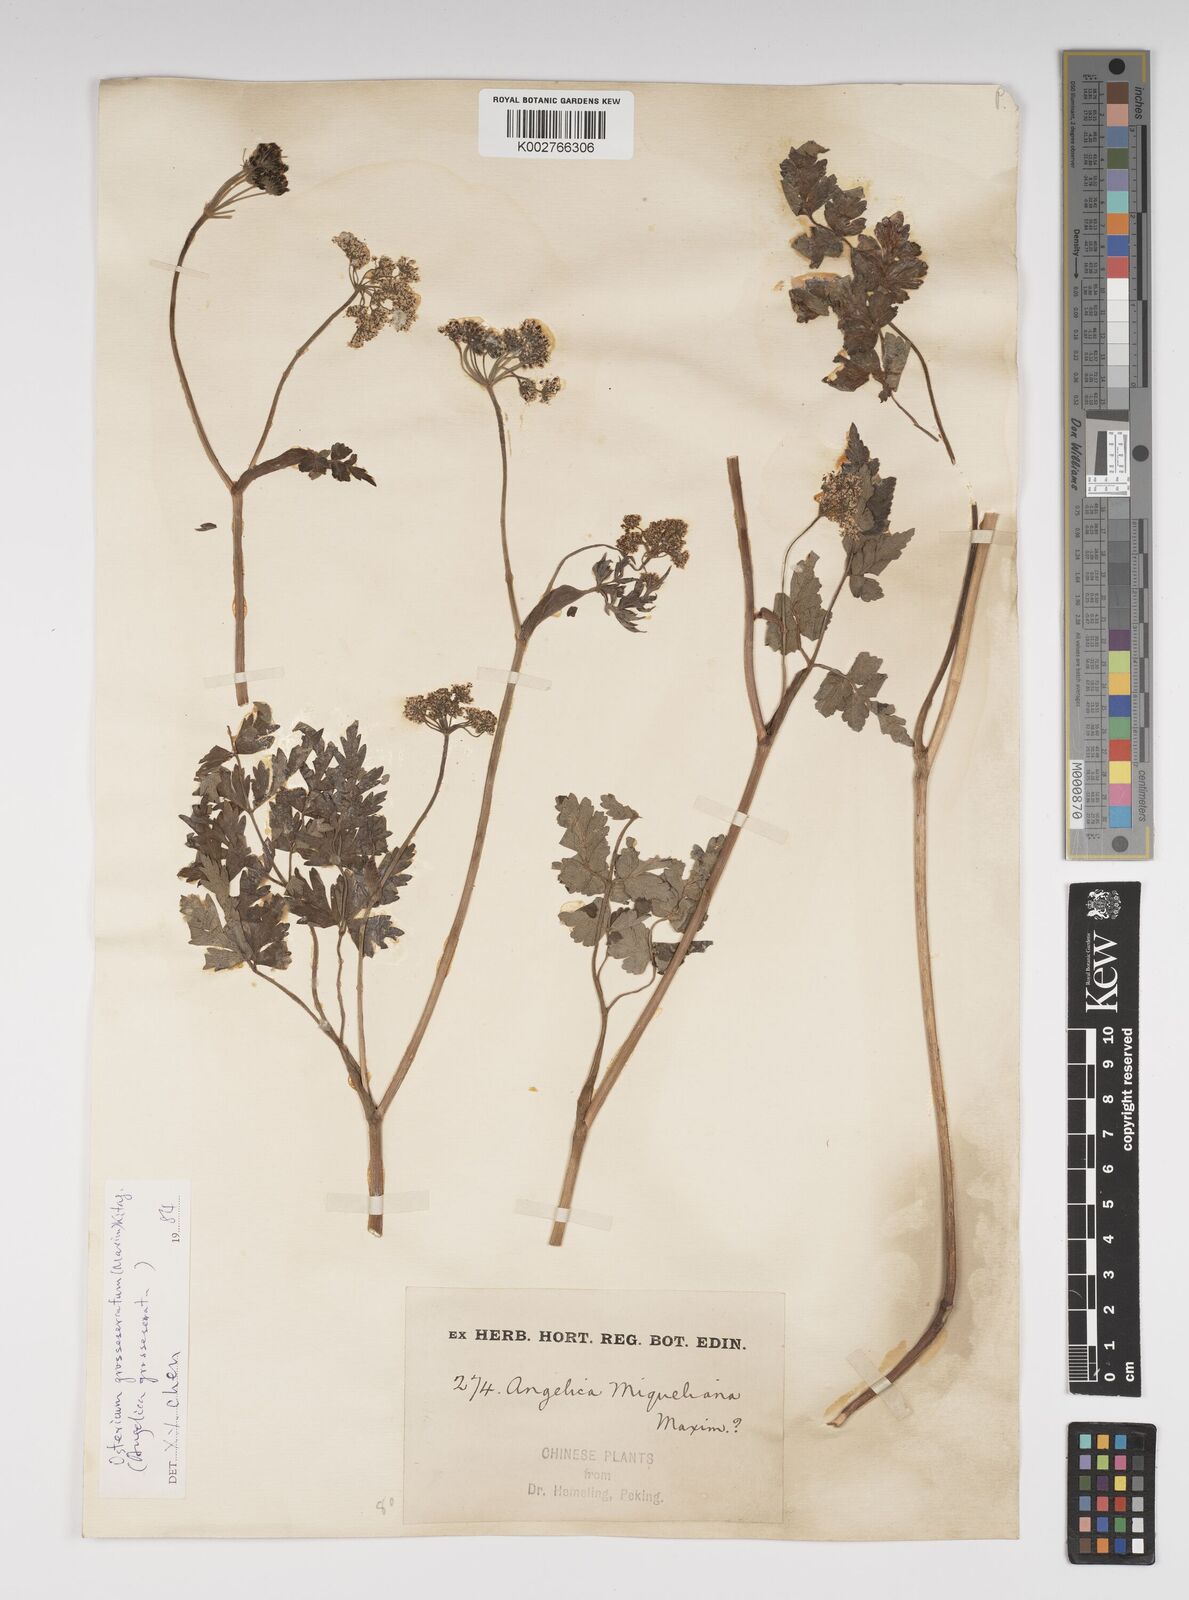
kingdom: Plantae
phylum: Tracheophyta
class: Magnoliopsida
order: Apiales
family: Apiaceae
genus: Ostericum
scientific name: Ostericum grosseserratum
